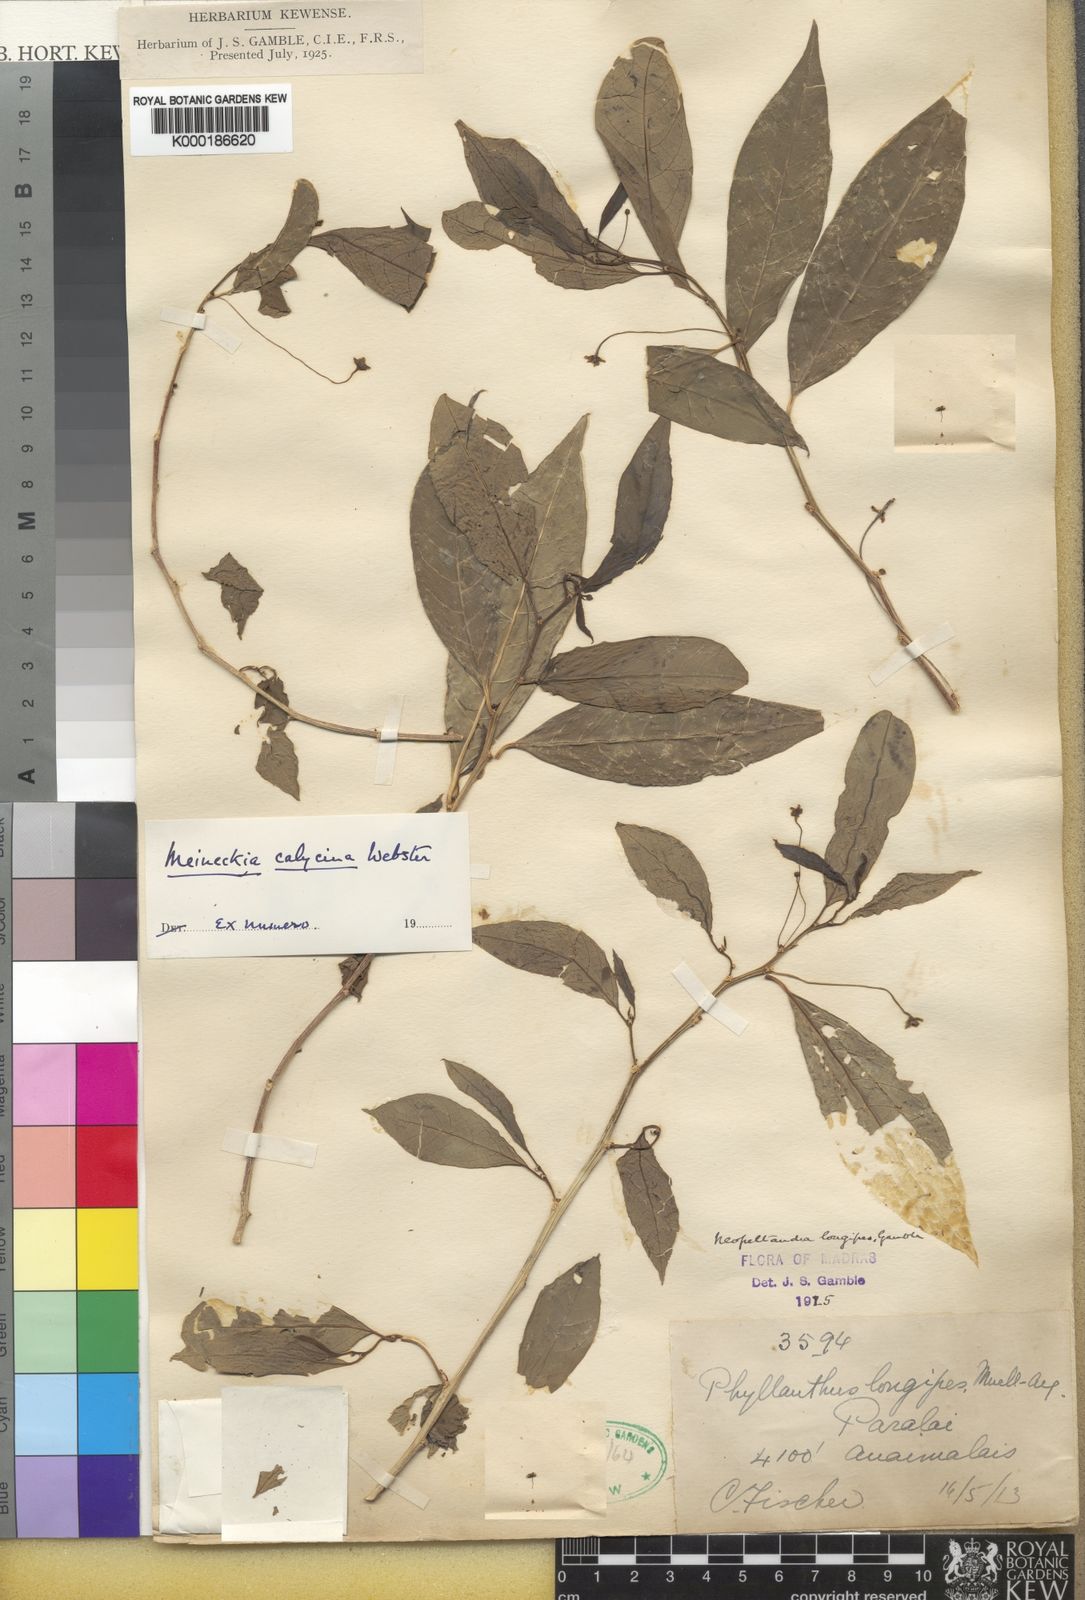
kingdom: Plantae
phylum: Tracheophyta
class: Magnoliopsida
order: Malpighiales
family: Phyllanthaceae
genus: Meineckia
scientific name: Meineckia calycina
